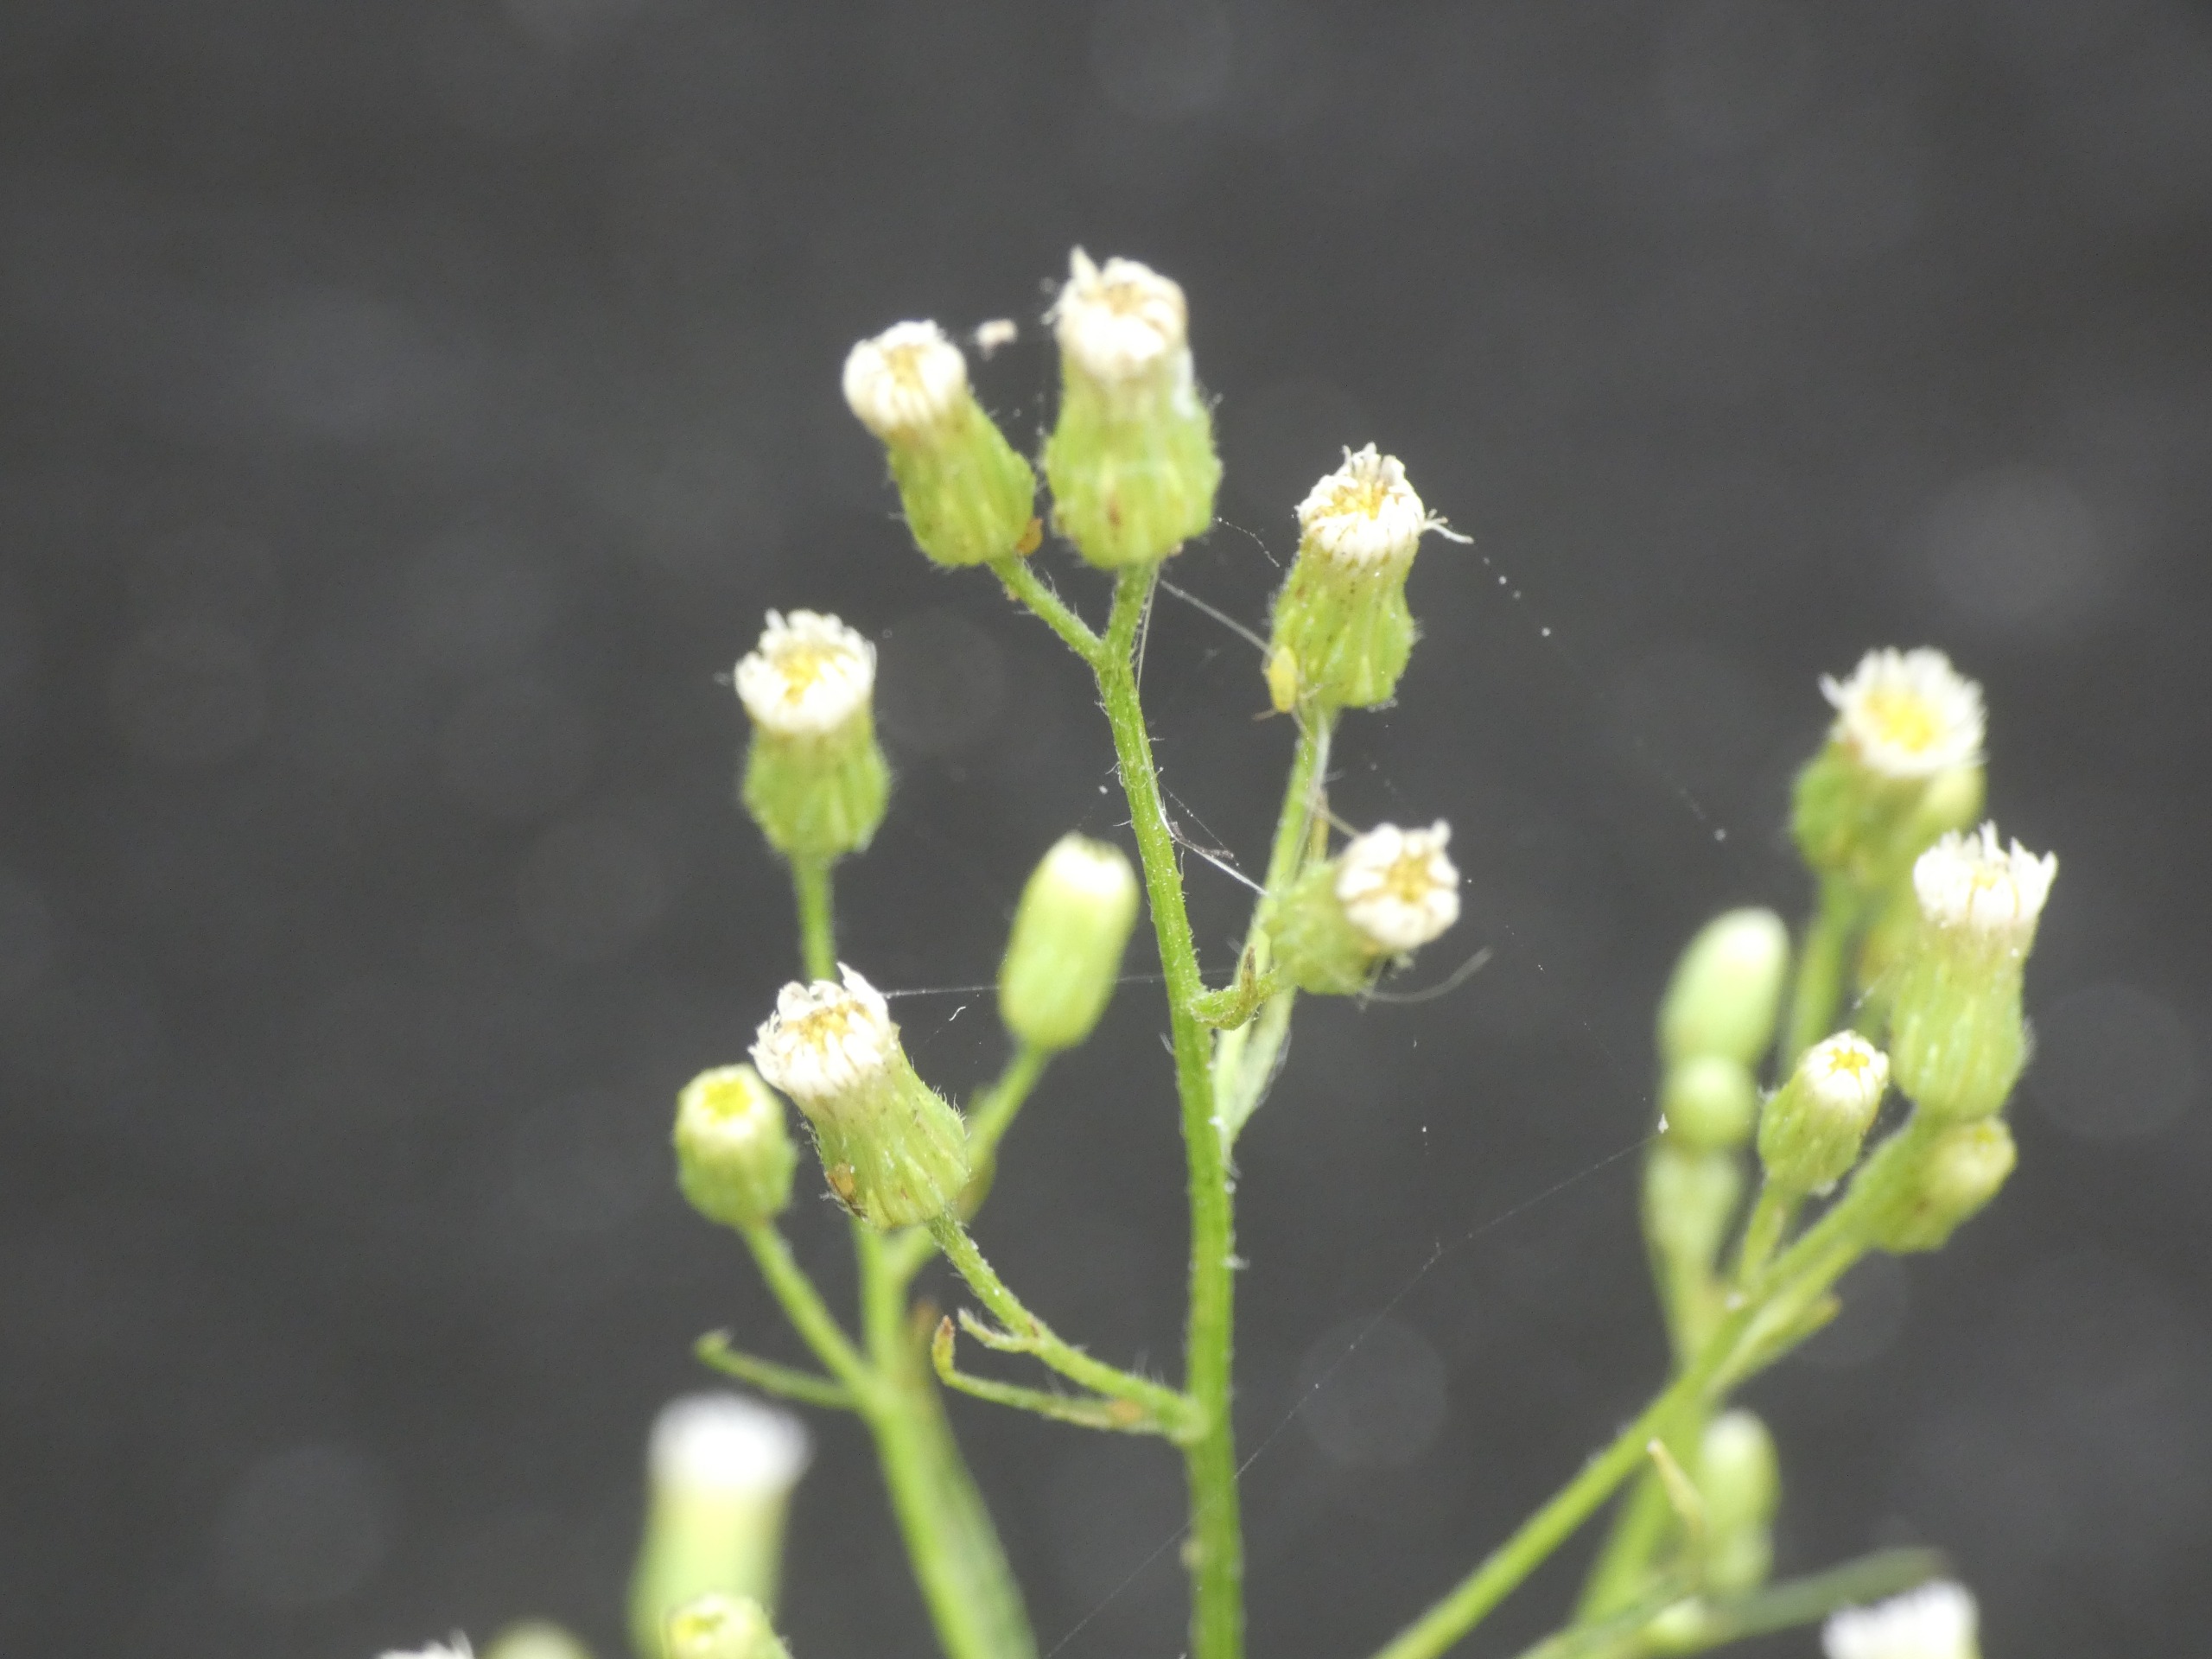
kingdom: Plantae
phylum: Tracheophyta
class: Magnoliopsida
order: Asterales
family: Asteraceae
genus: Erigeron
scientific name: Erigeron canadensis
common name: Kanadisk bakkestjerne
